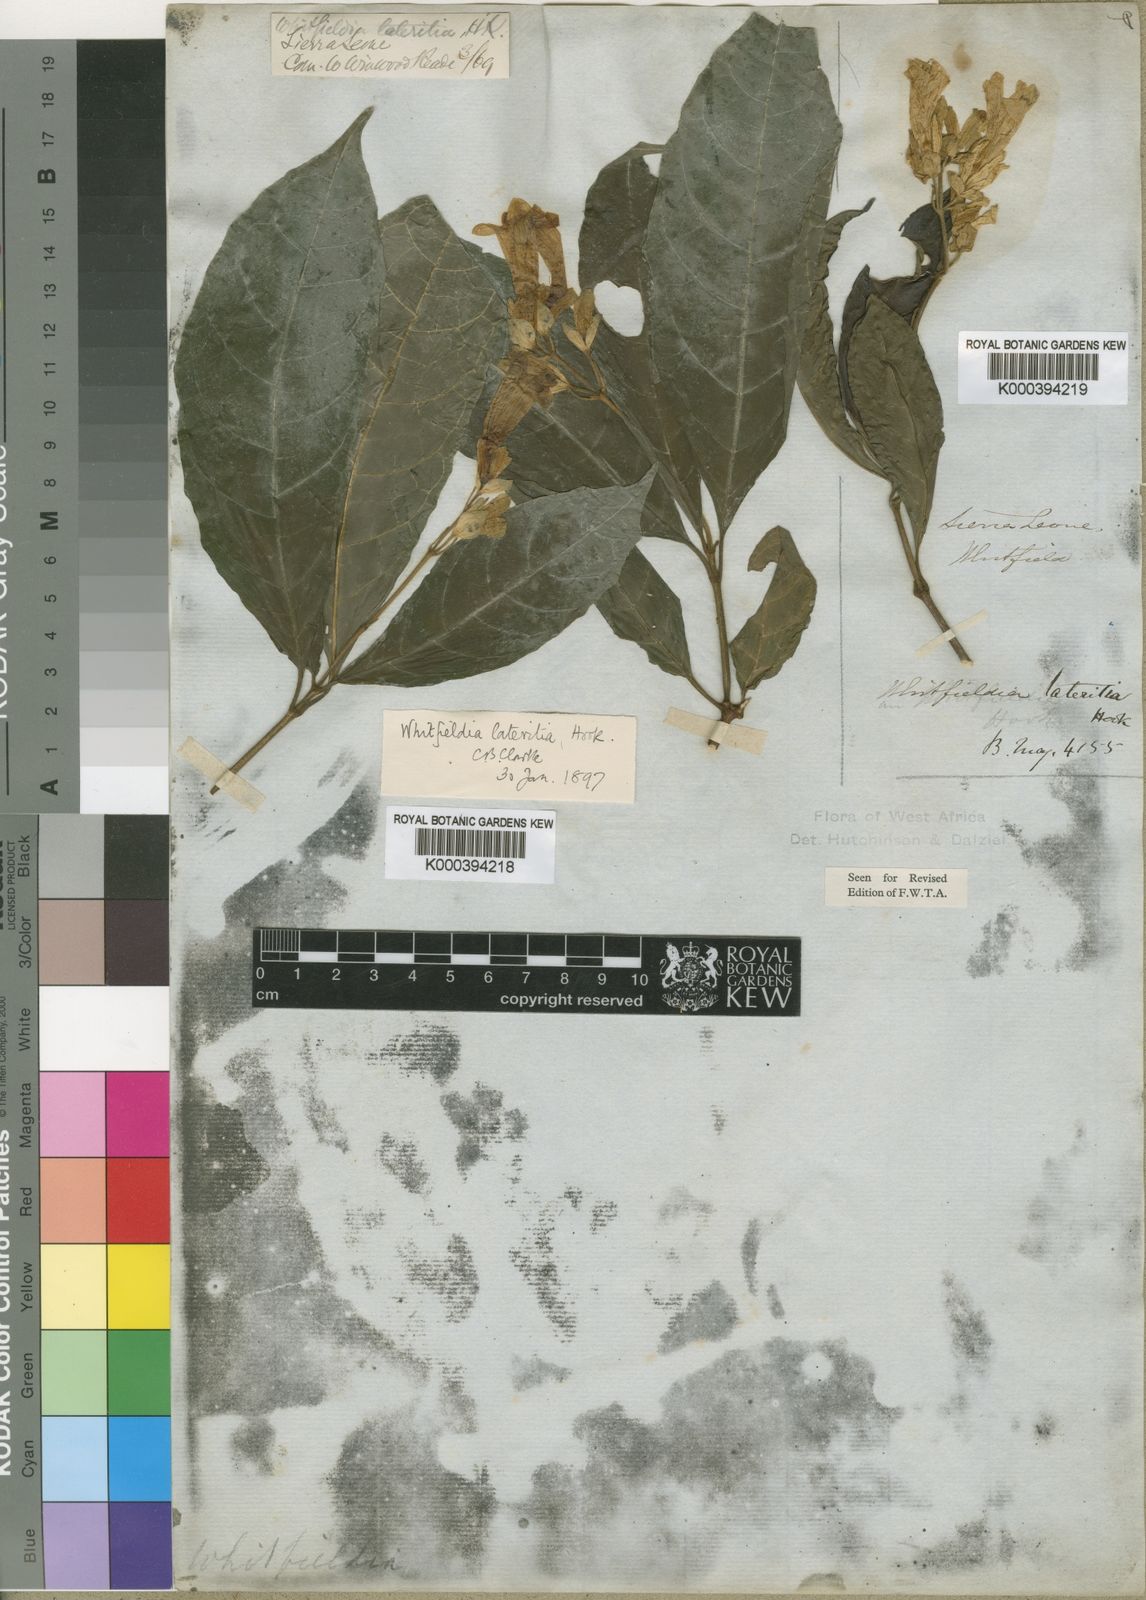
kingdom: Plantae
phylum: Tracheophyta
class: Magnoliopsida
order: Lamiales
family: Acanthaceae
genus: Whitfieldia
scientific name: Whitfieldia lateritia
